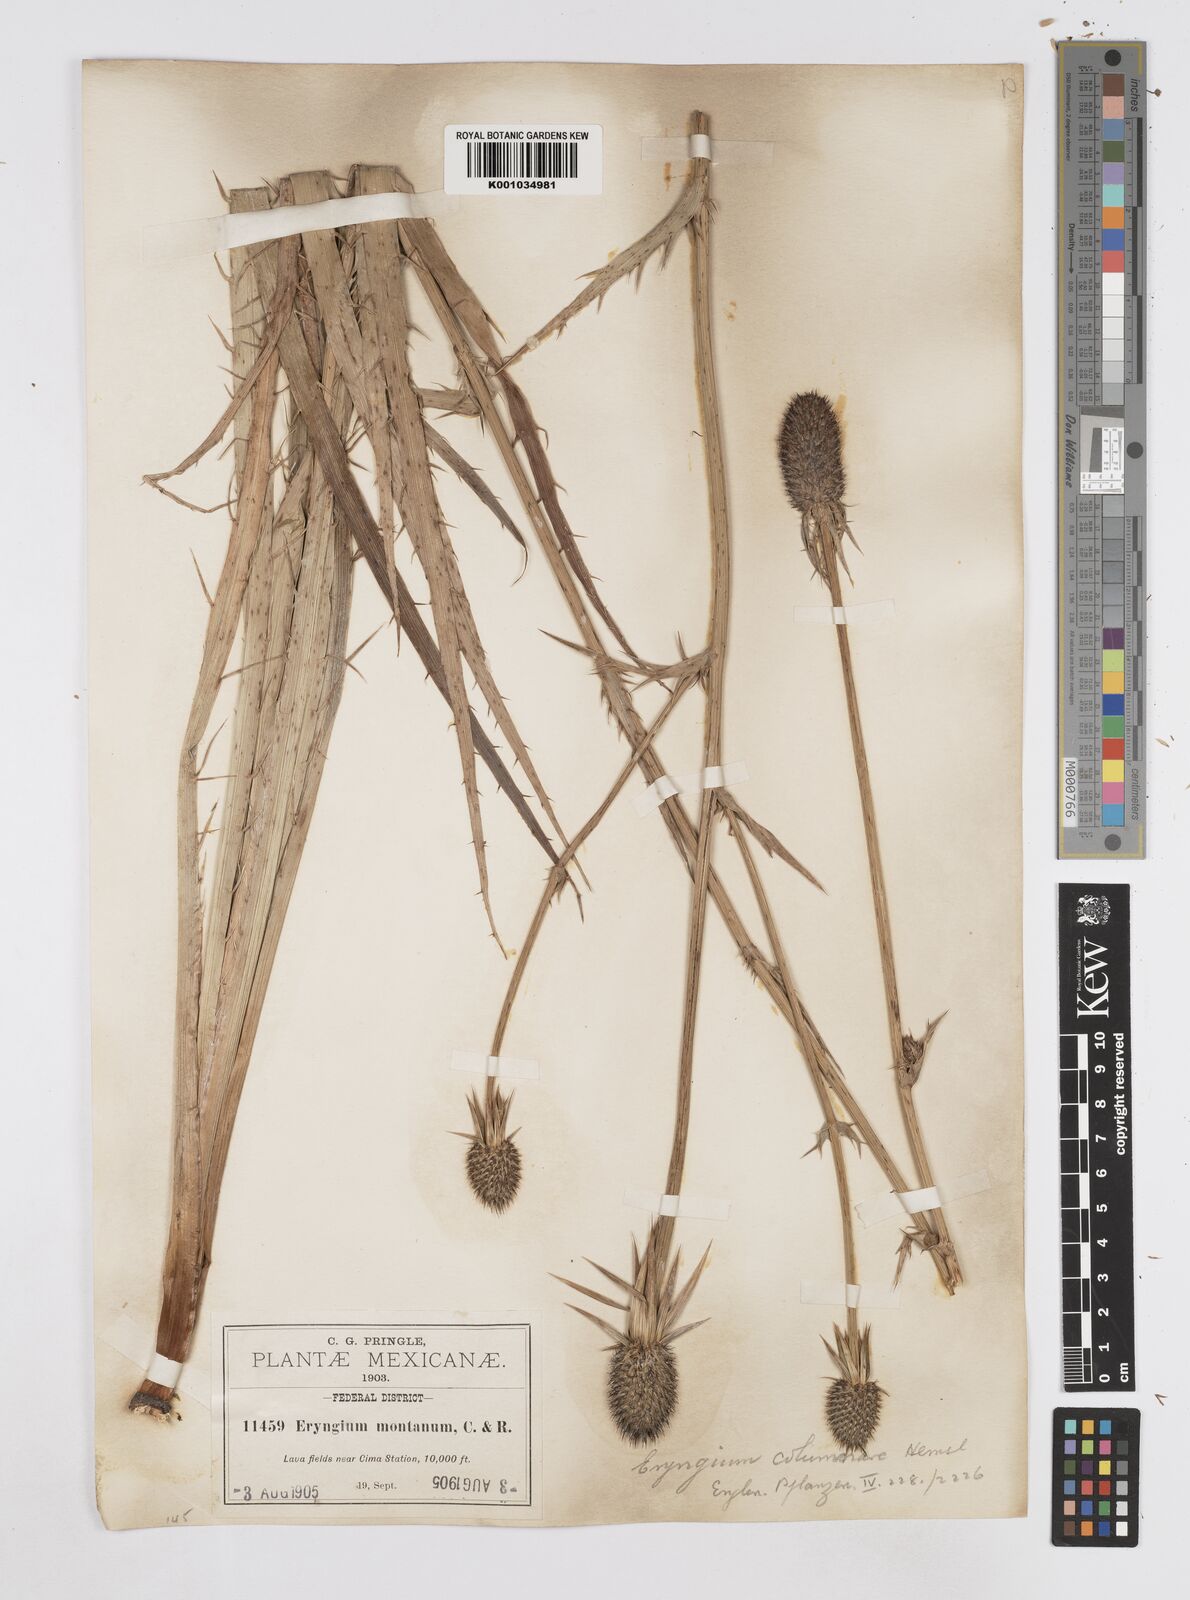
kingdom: Plantae
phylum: Tracheophyta
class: Magnoliopsida
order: Apiales
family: Apiaceae
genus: Eryngium
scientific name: Eryngium columnare
